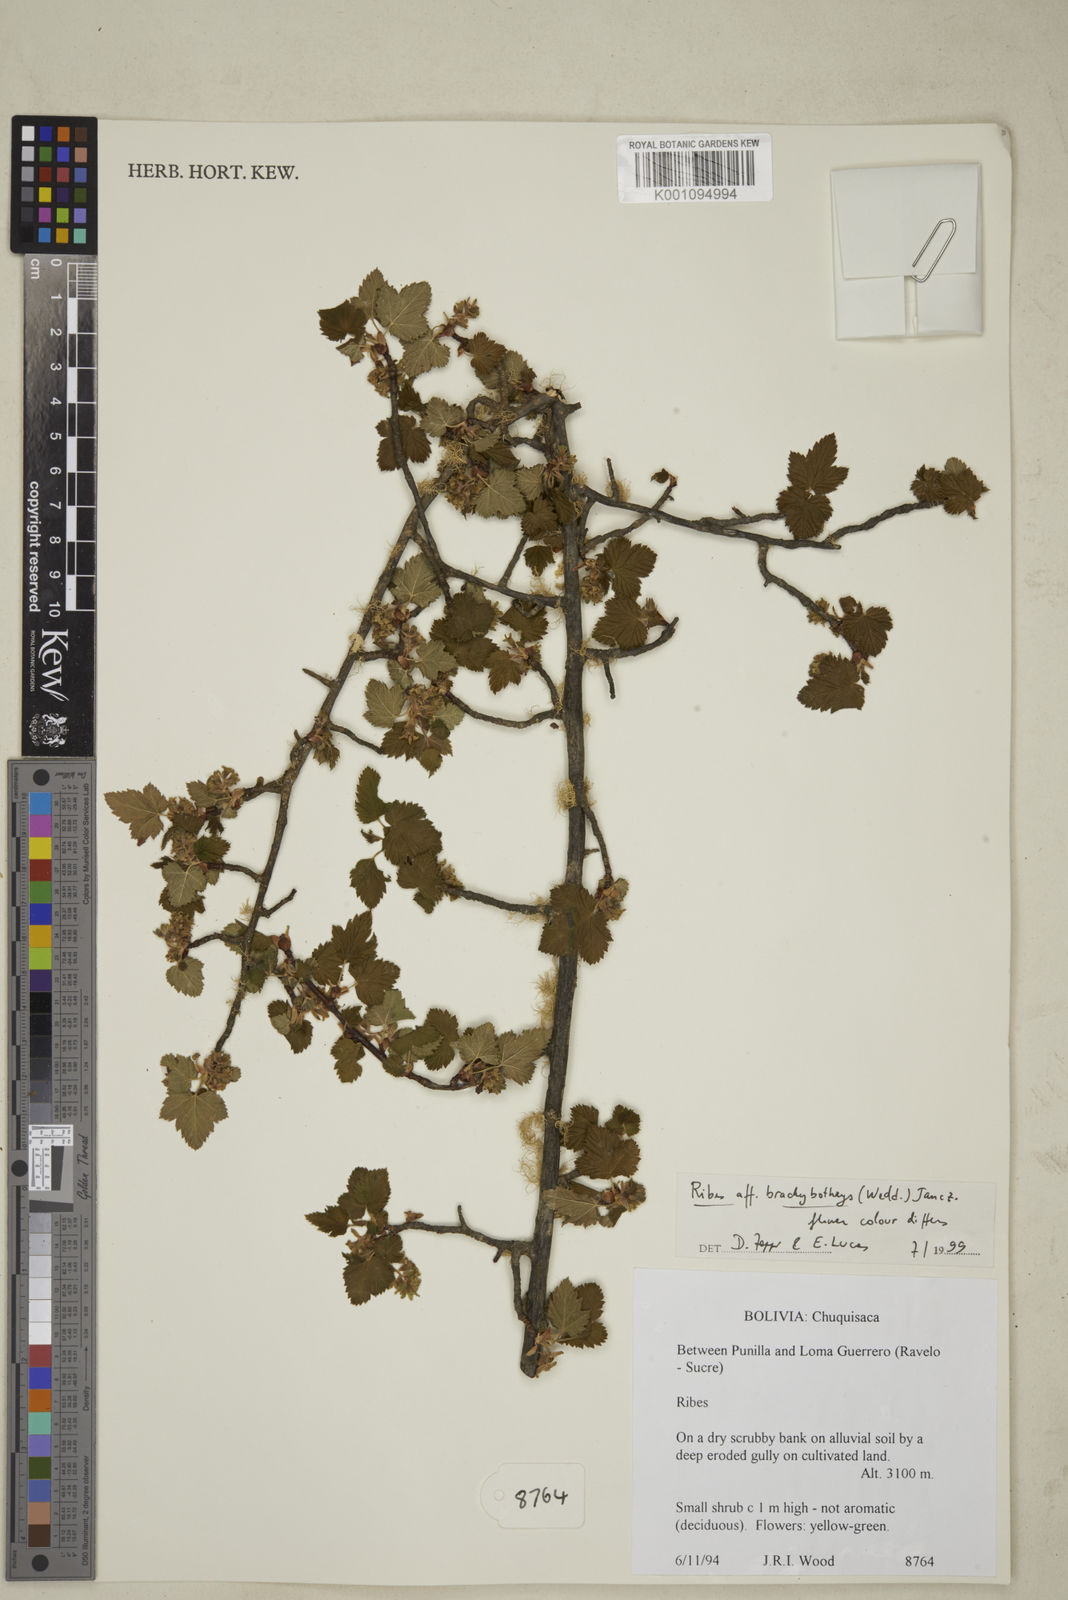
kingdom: Plantae
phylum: Tracheophyta
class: Magnoliopsida
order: Saxifragales
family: Grossulariaceae
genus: Ribes
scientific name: Ribes brachybotrys
